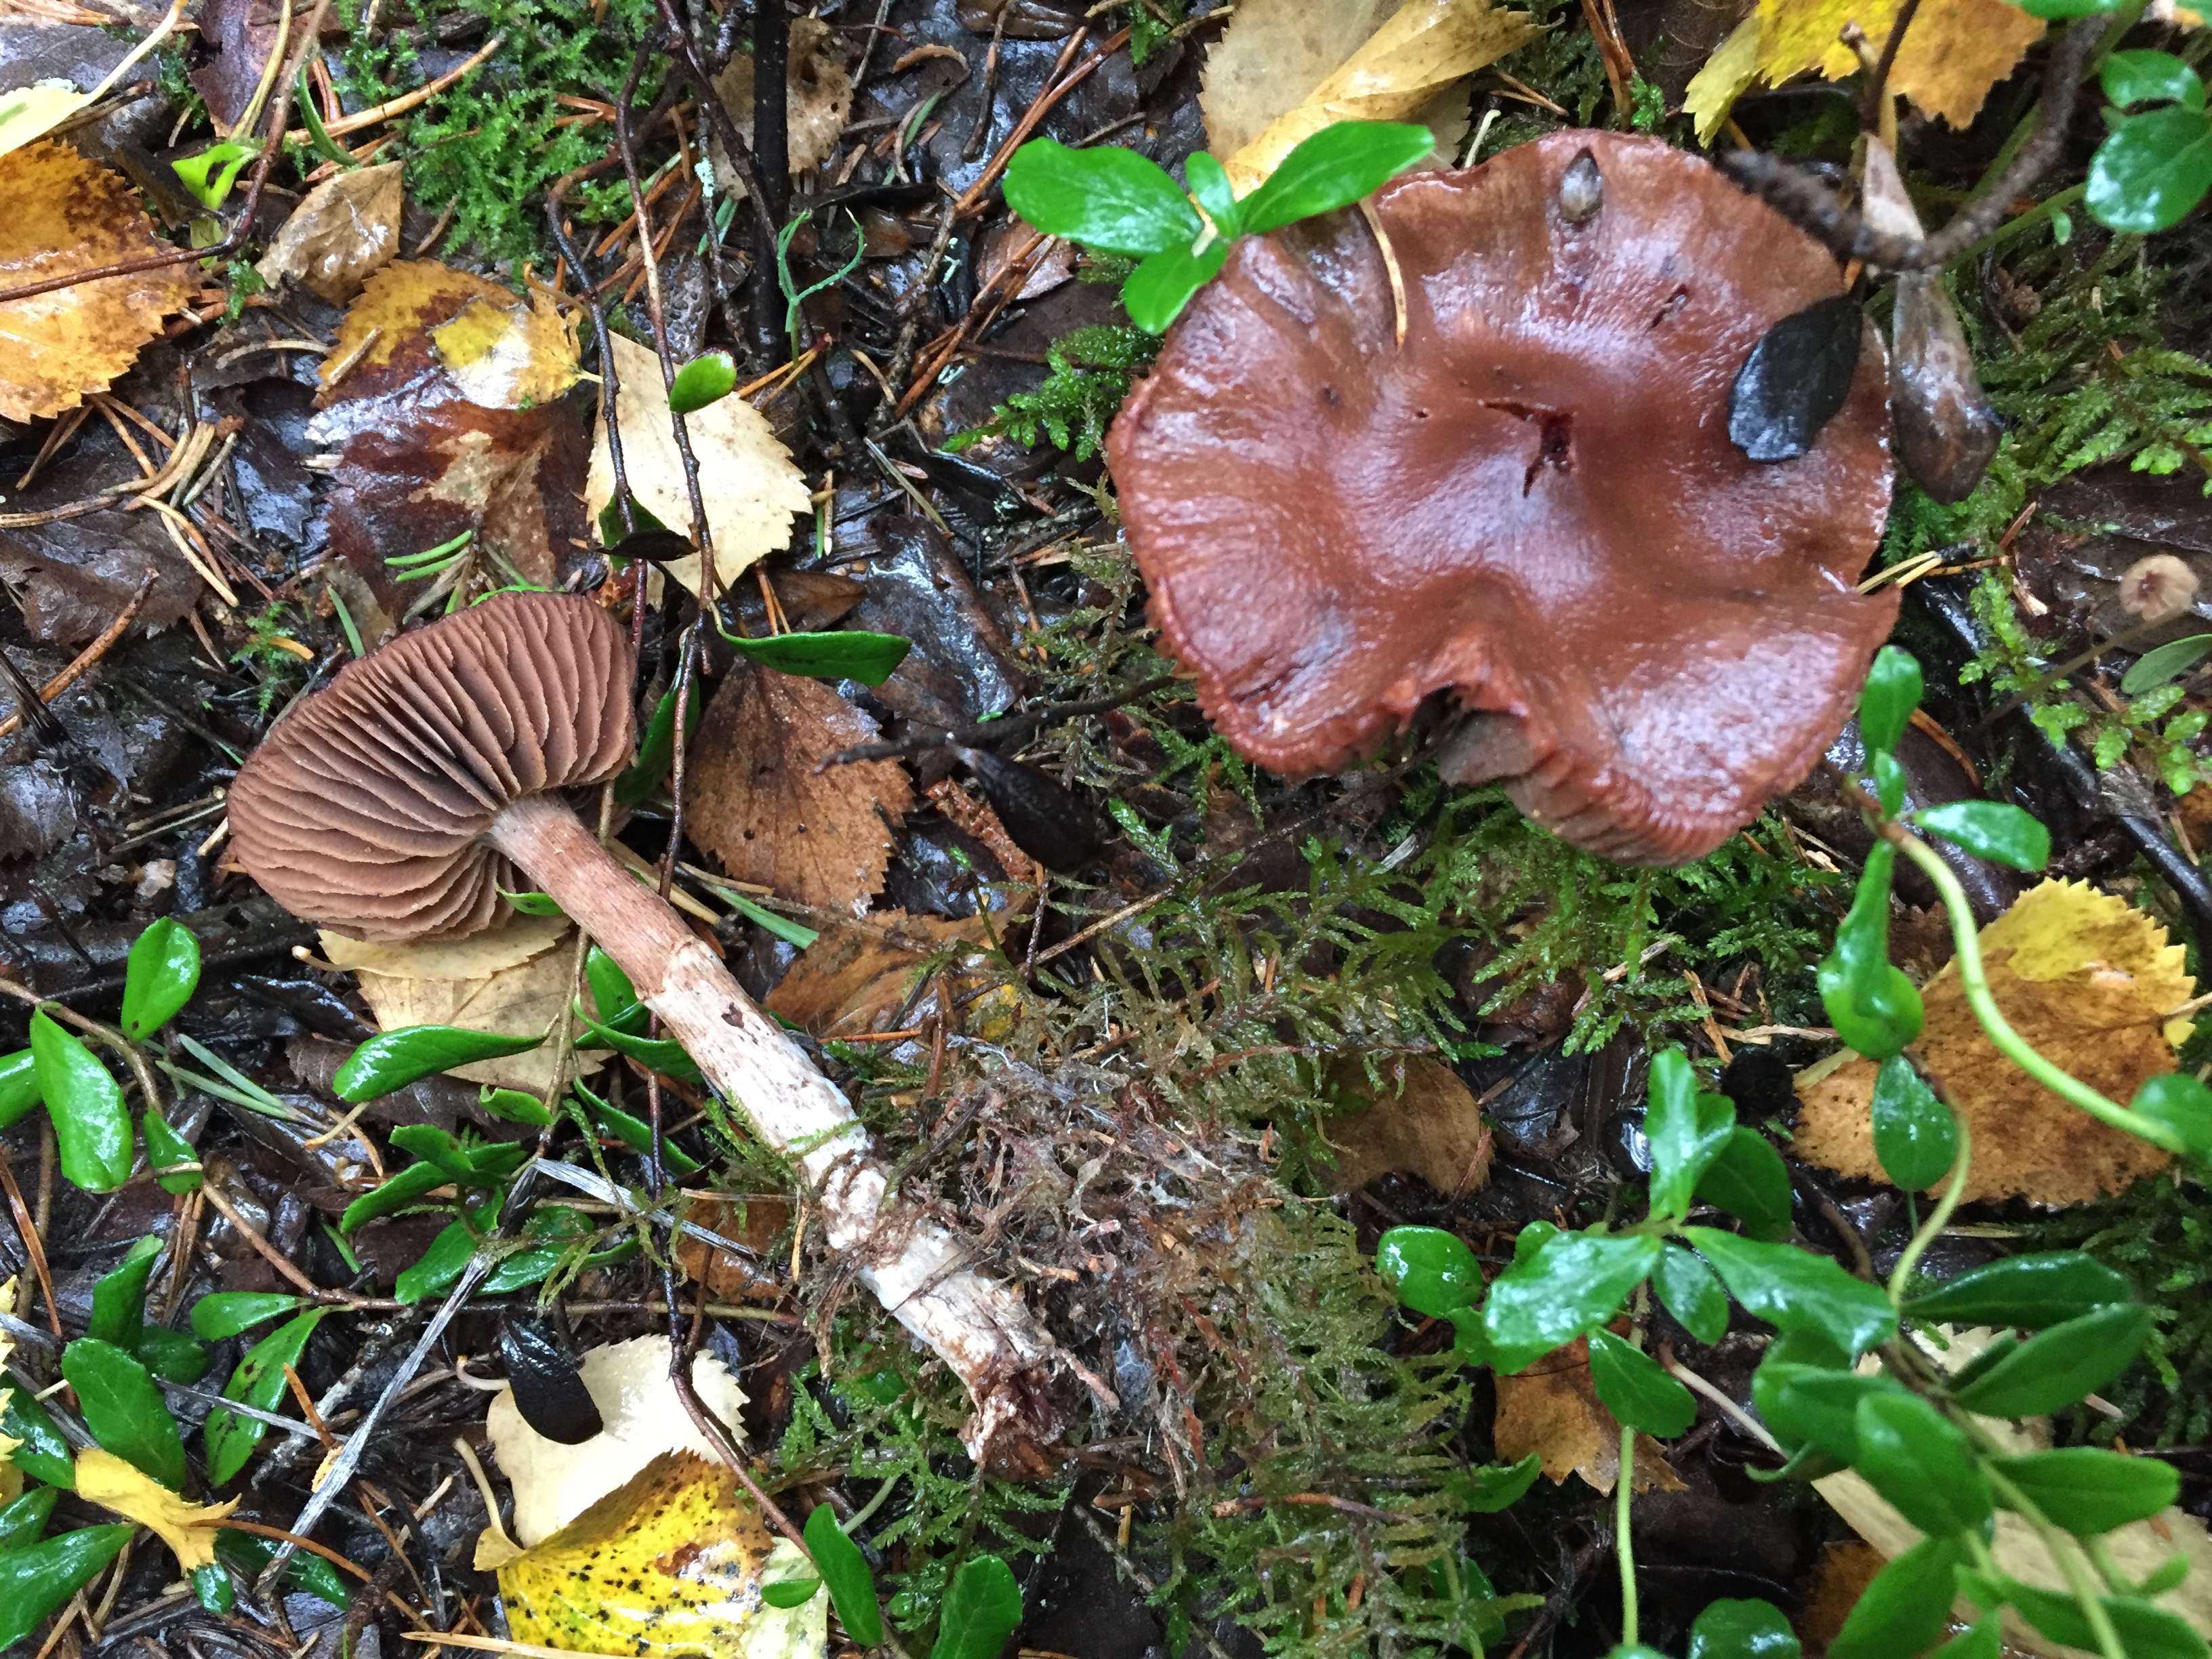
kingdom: Fungi
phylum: Basidiomycota
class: Agaricomycetes
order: Agaricales
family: Cortinariaceae
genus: Cortinarius
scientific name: Cortinarius
